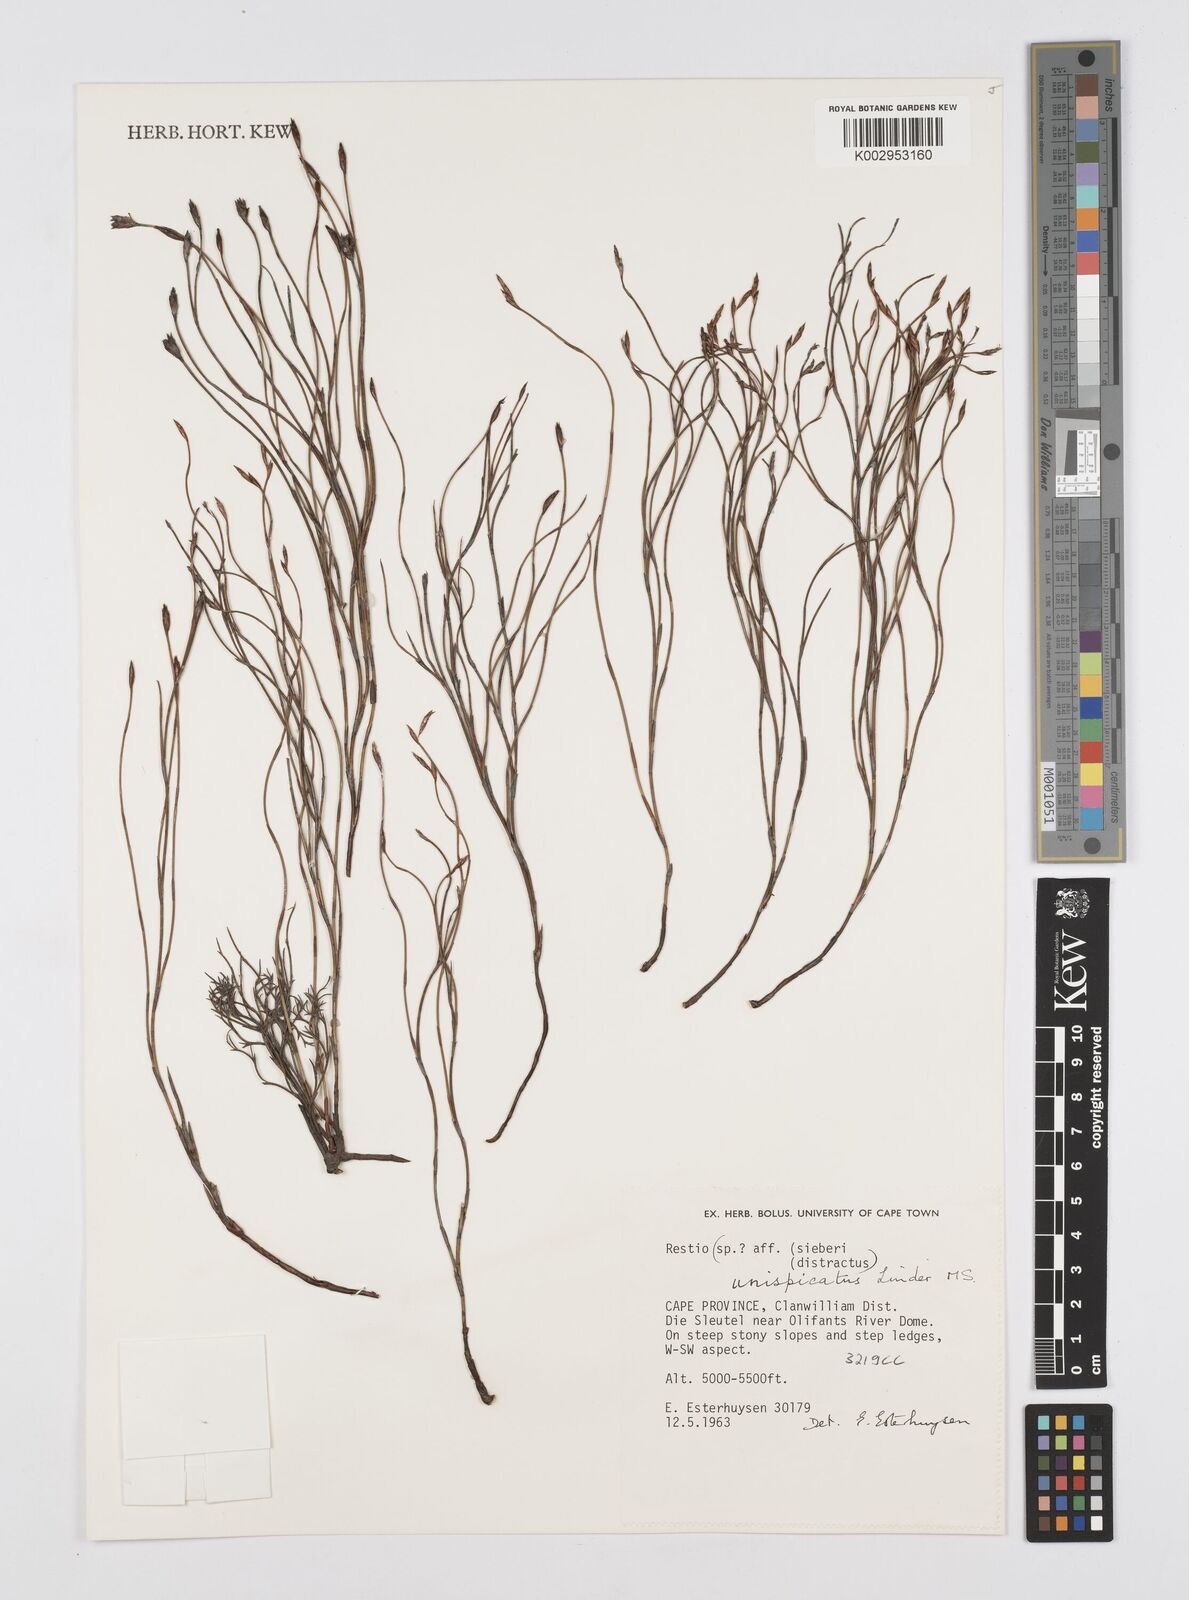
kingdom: Plantae
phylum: Tracheophyta
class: Liliopsida
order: Poales
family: Restionaceae
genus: Restio
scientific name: Restio unispicatus
